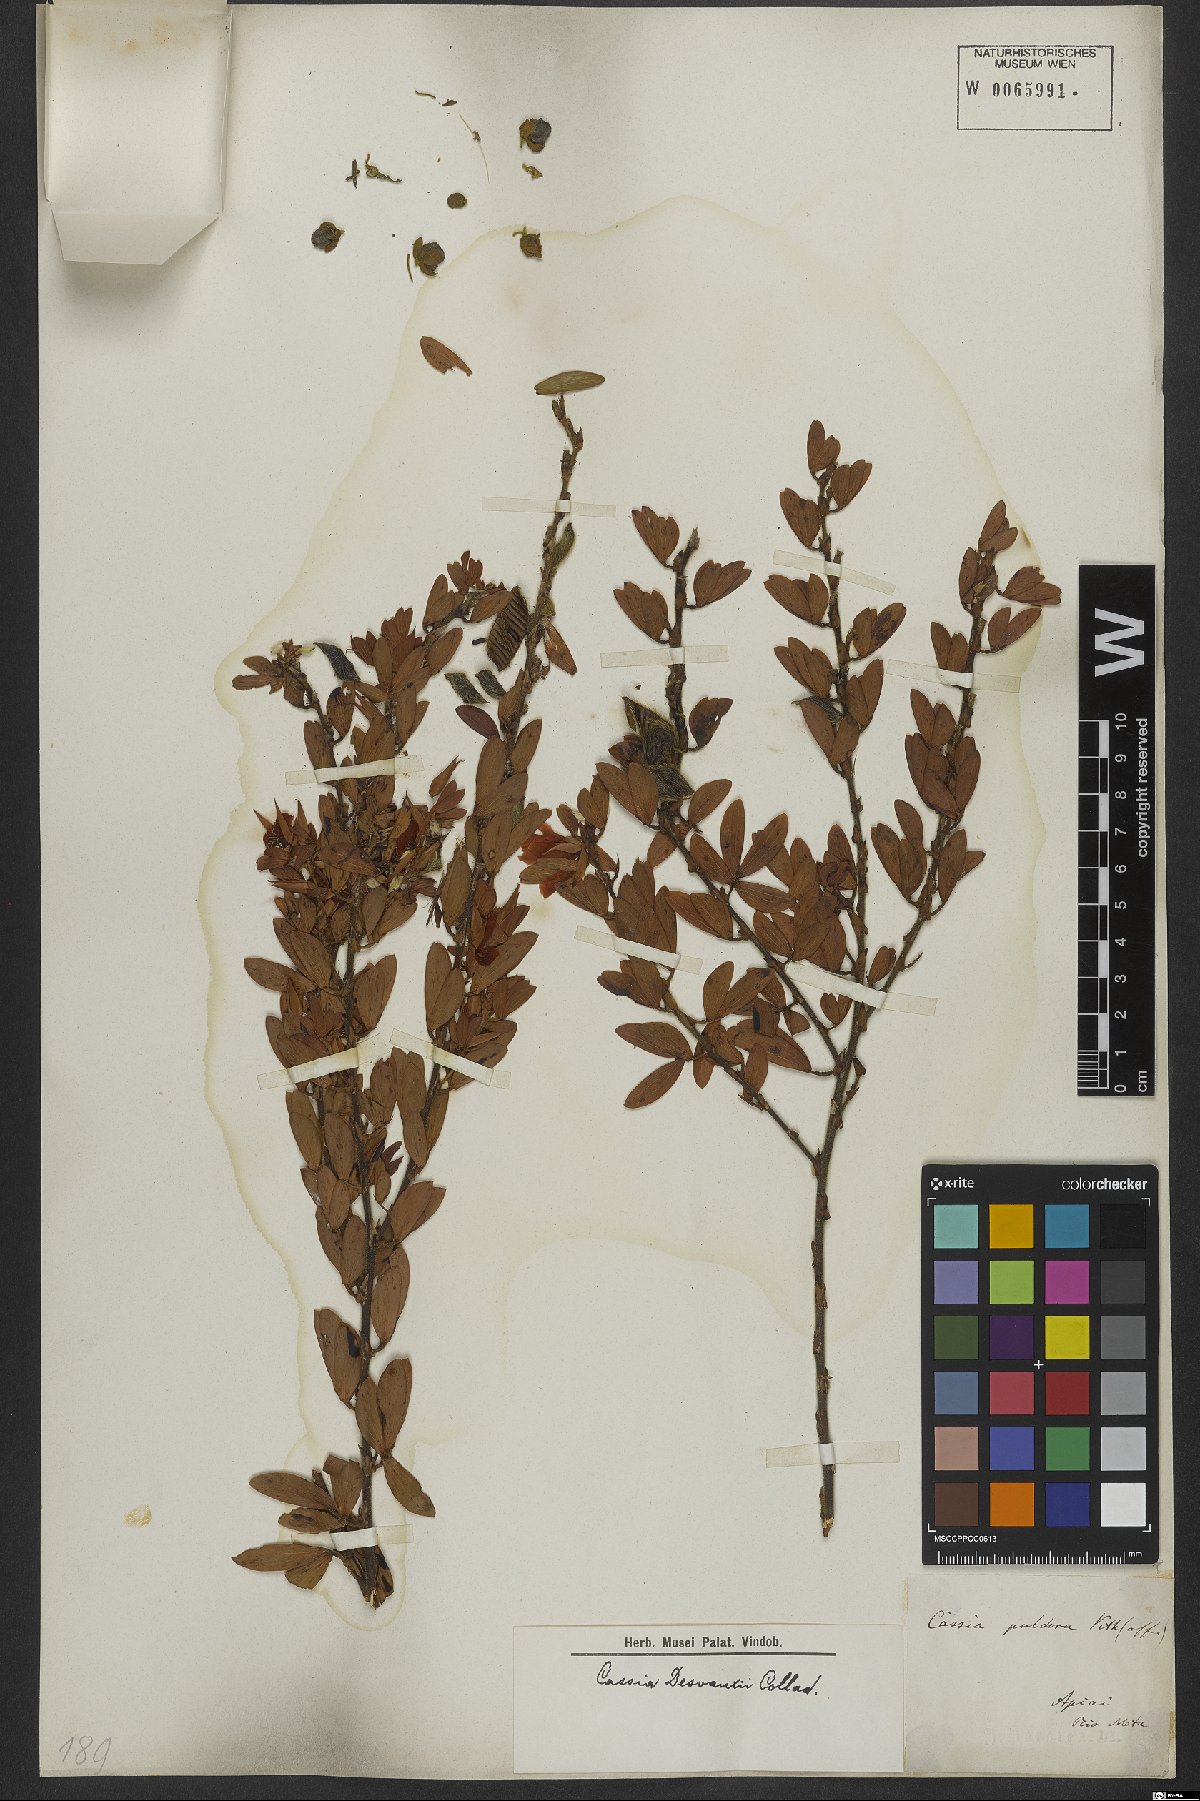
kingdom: Plantae
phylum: Tracheophyta
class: Magnoliopsida
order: Fabales
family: Fabaceae
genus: Chamaecrista
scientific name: Chamaecrista desvauxii
